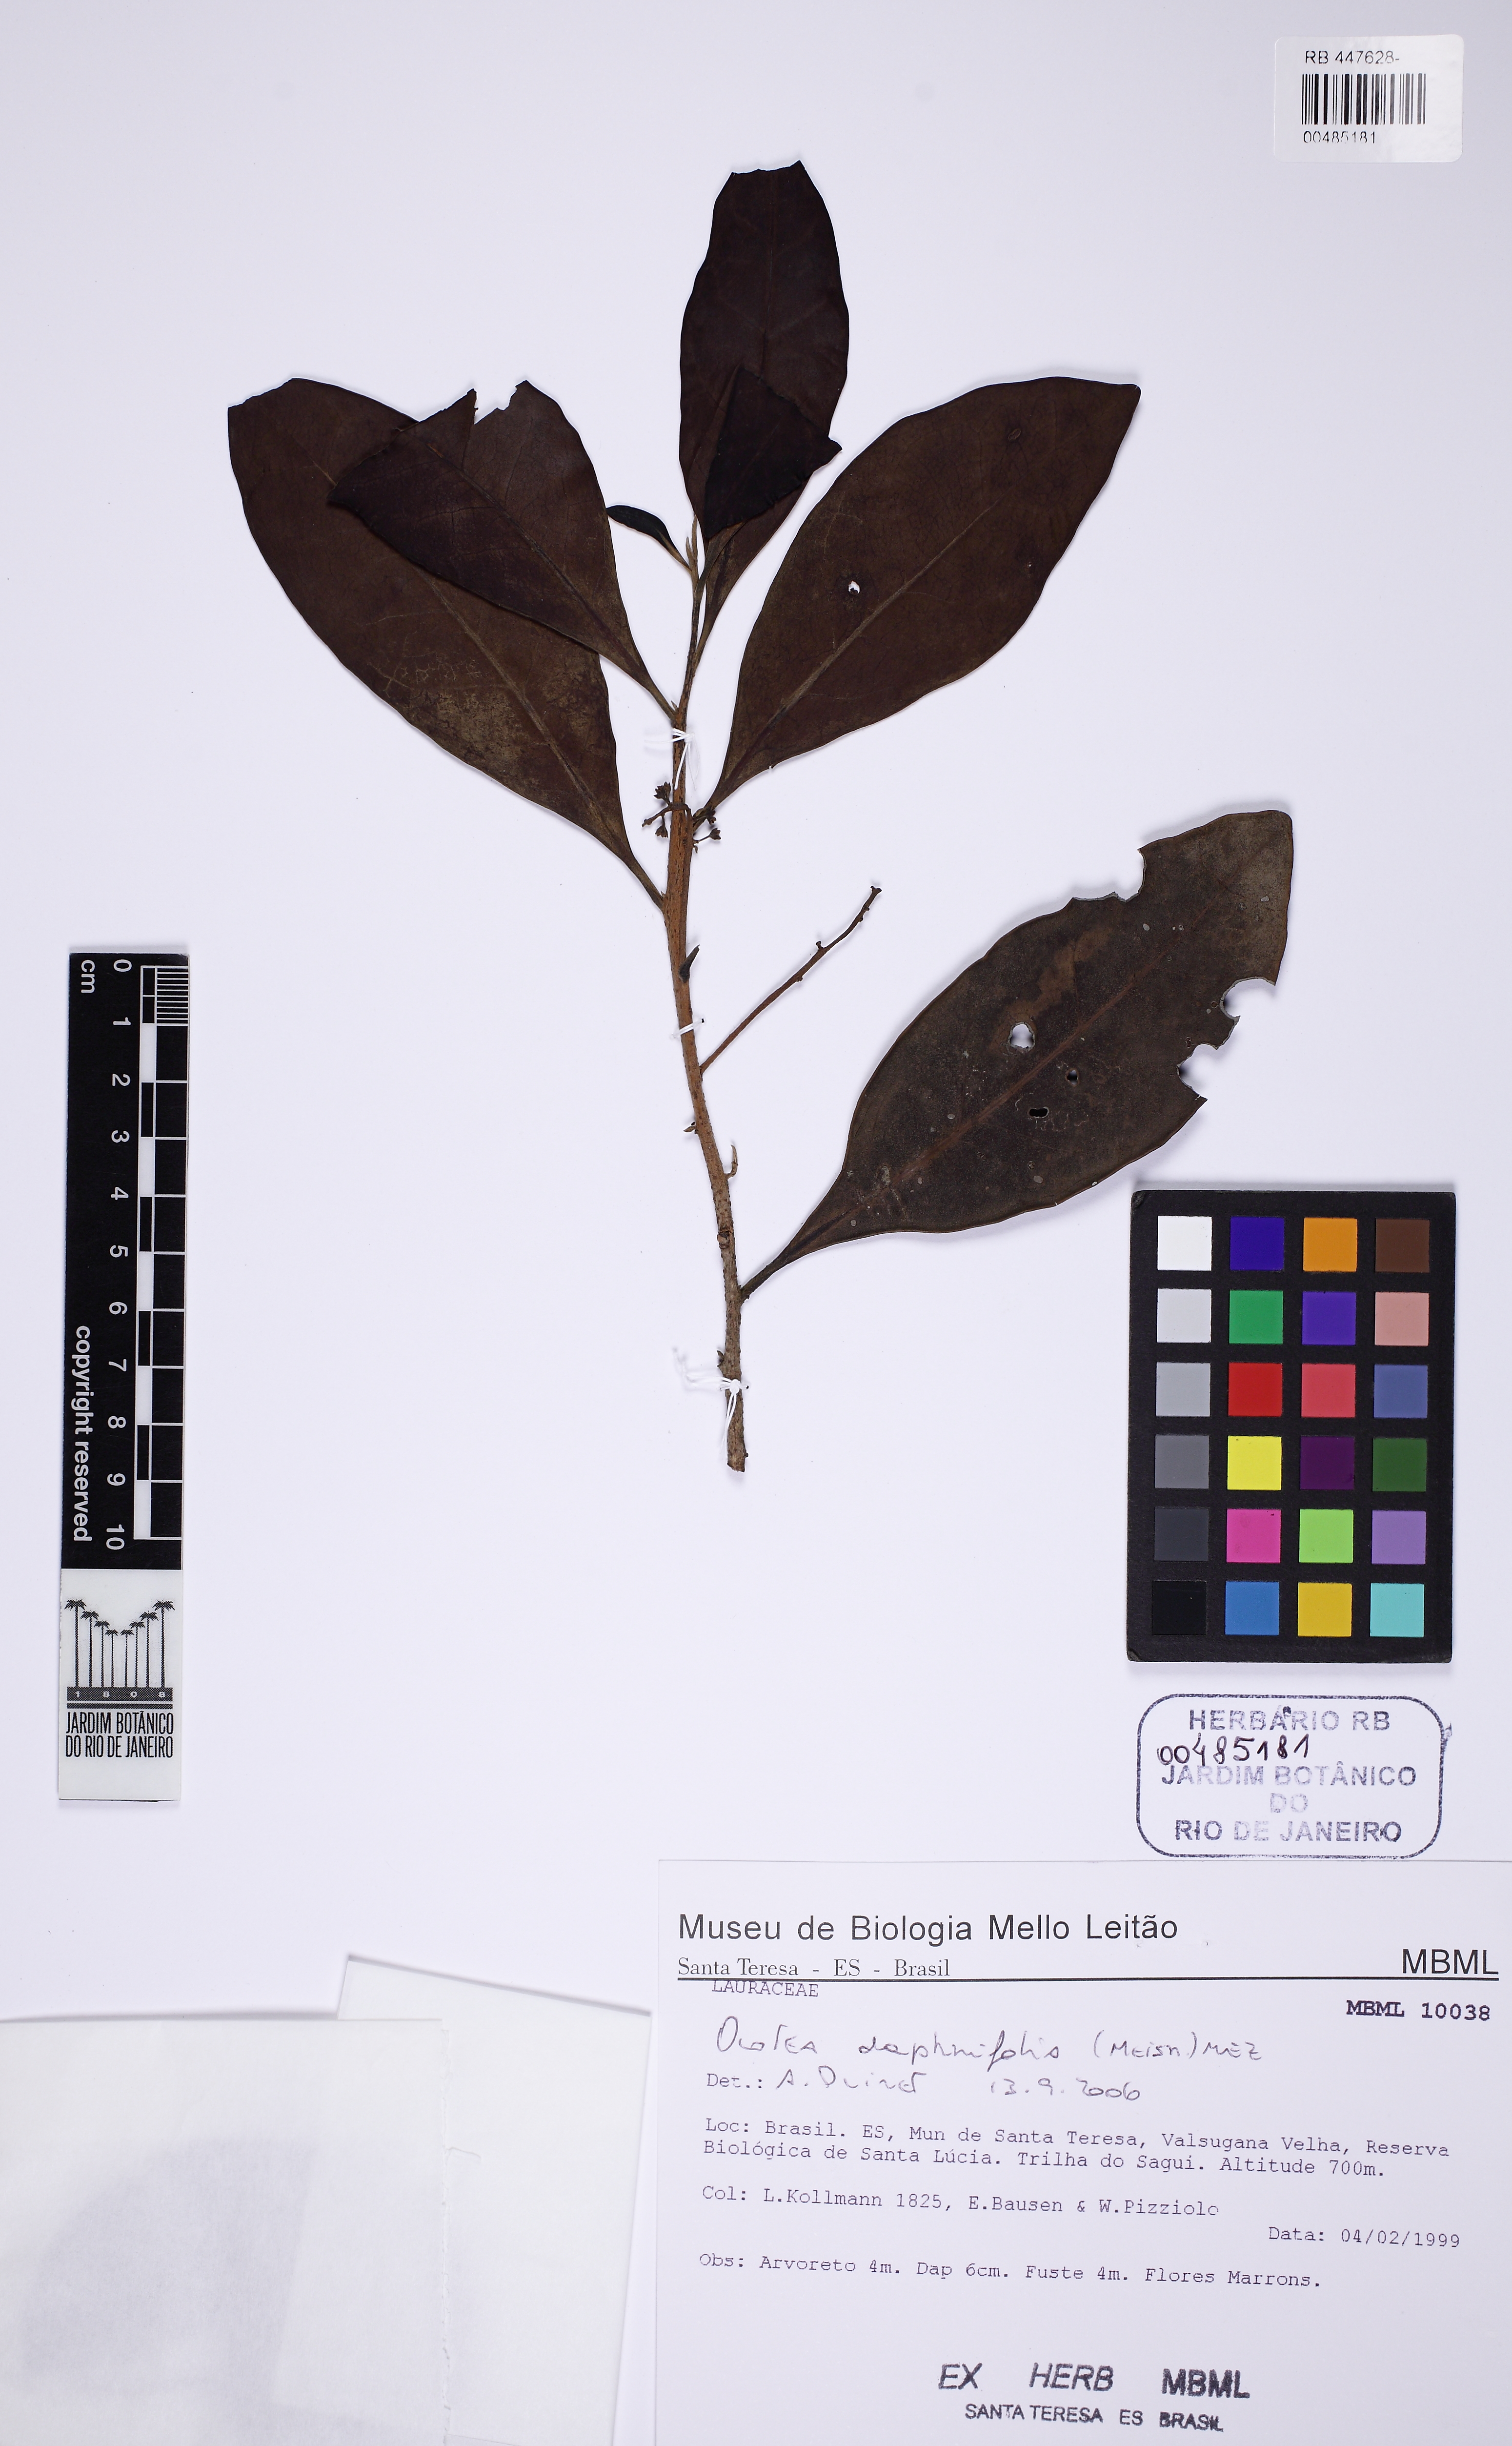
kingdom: Plantae
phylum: Tracheophyta
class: Magnoliopsida
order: Laurales
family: Lauraceae
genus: Ocotea
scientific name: Ocotea daphnifolia
